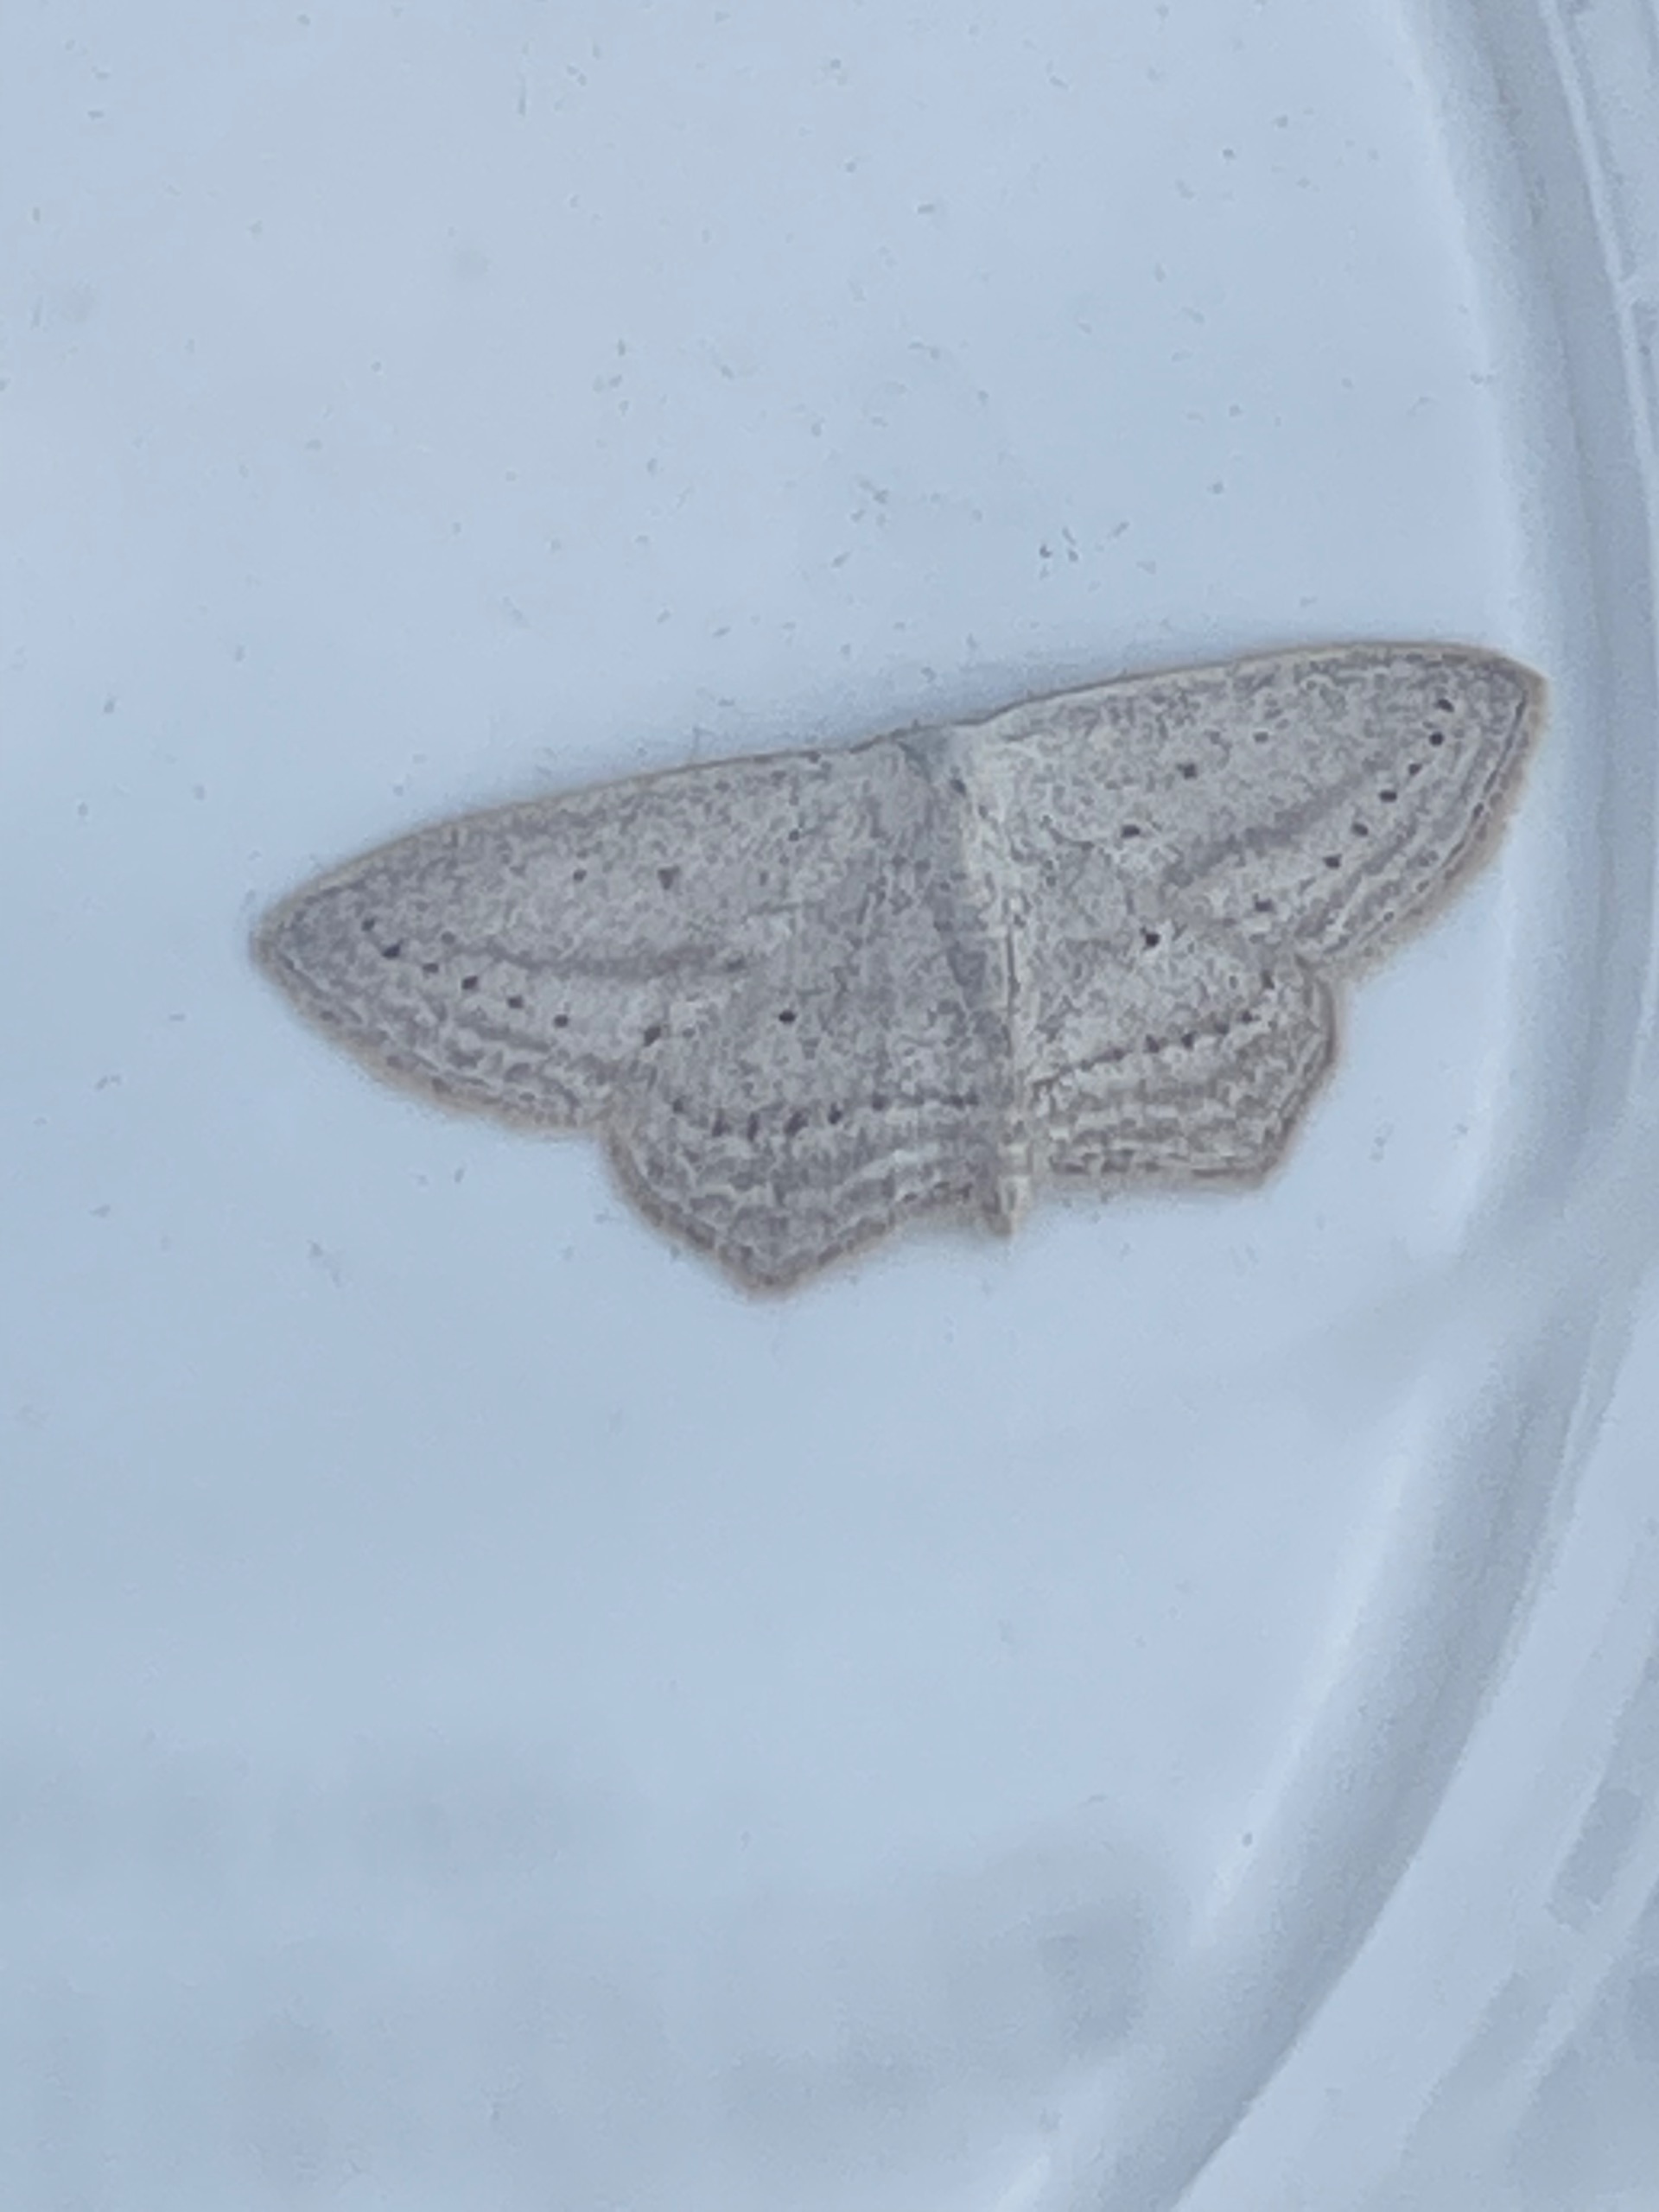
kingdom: Animalia
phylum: Arthropoda
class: Insecta
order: Lepidoptera
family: Geometridae
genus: Scopula
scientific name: Scopula emutaria
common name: Marsk duskmåler
